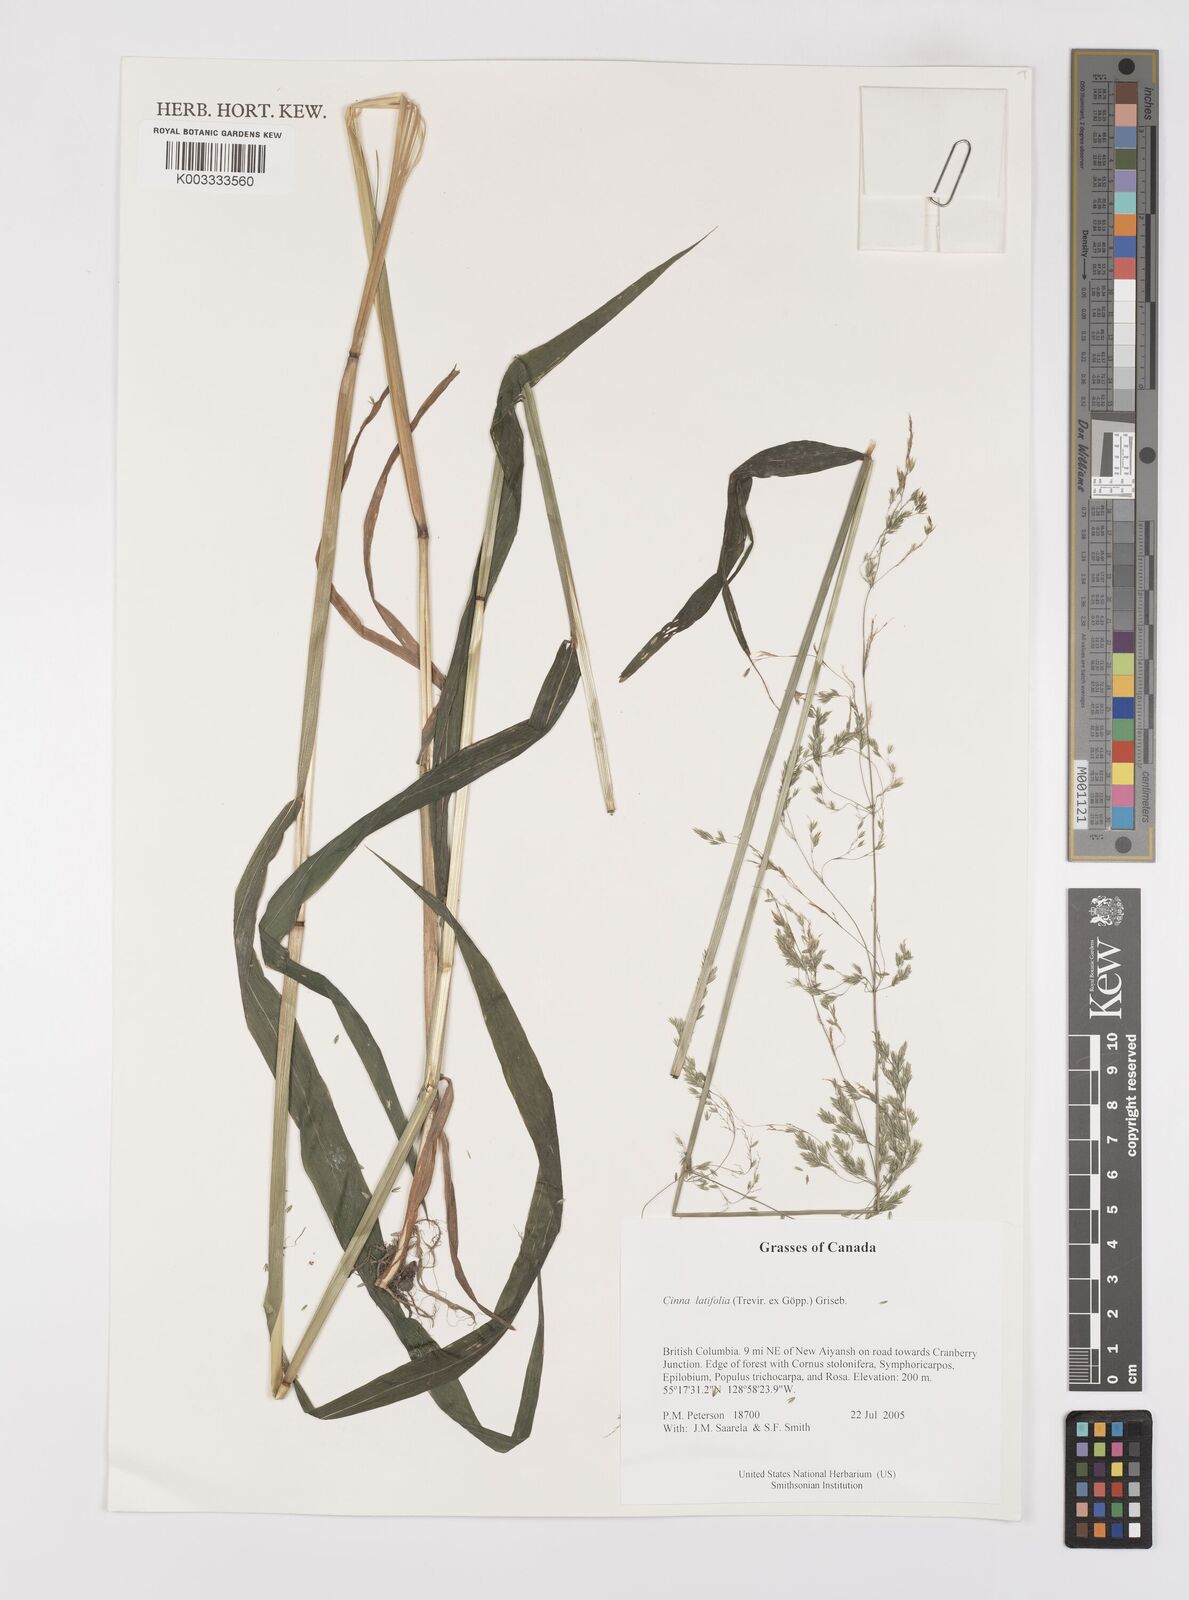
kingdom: Plantae
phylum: Tracheophyta
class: Liliopsida
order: Poales
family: Poaceae
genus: Cinna
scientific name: Cinna latifolia
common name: Drooping woodreed
